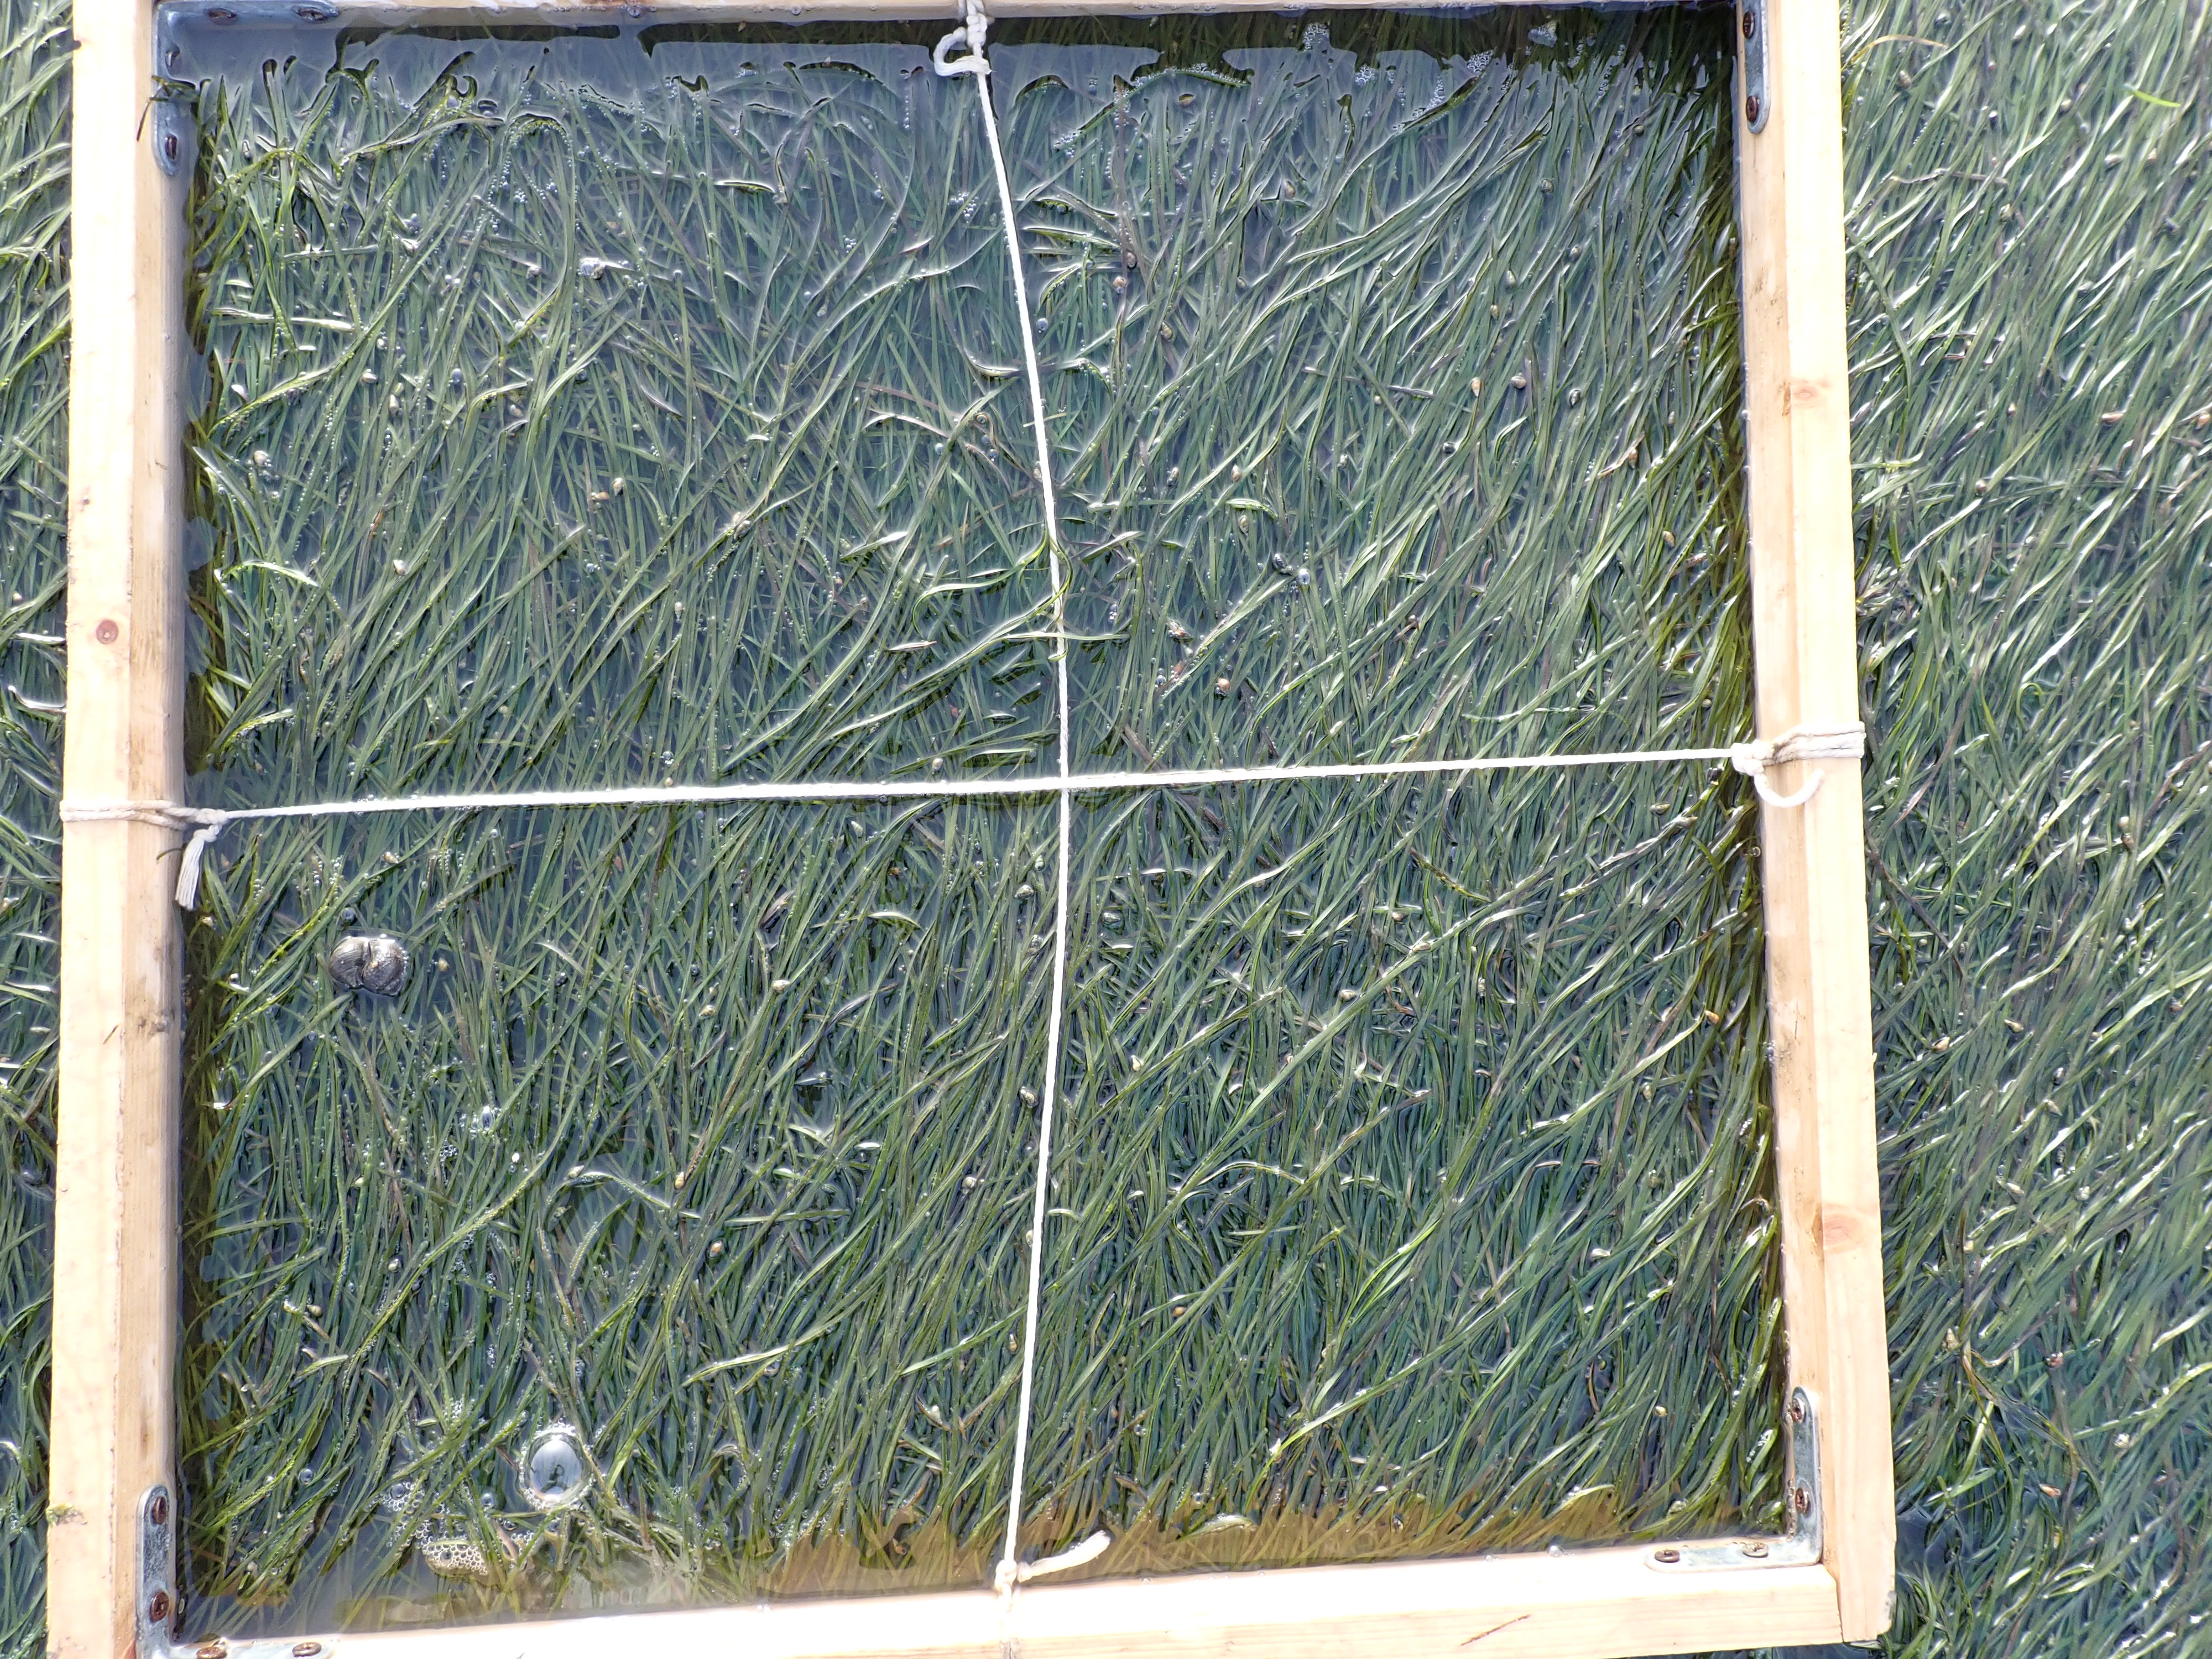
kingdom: Plantae
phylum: Tracheophyta
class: Liliopsida
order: Alismatales
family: Zosteraceae
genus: Zostera
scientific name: Zostera noltii
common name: Dwarf eelgrass
